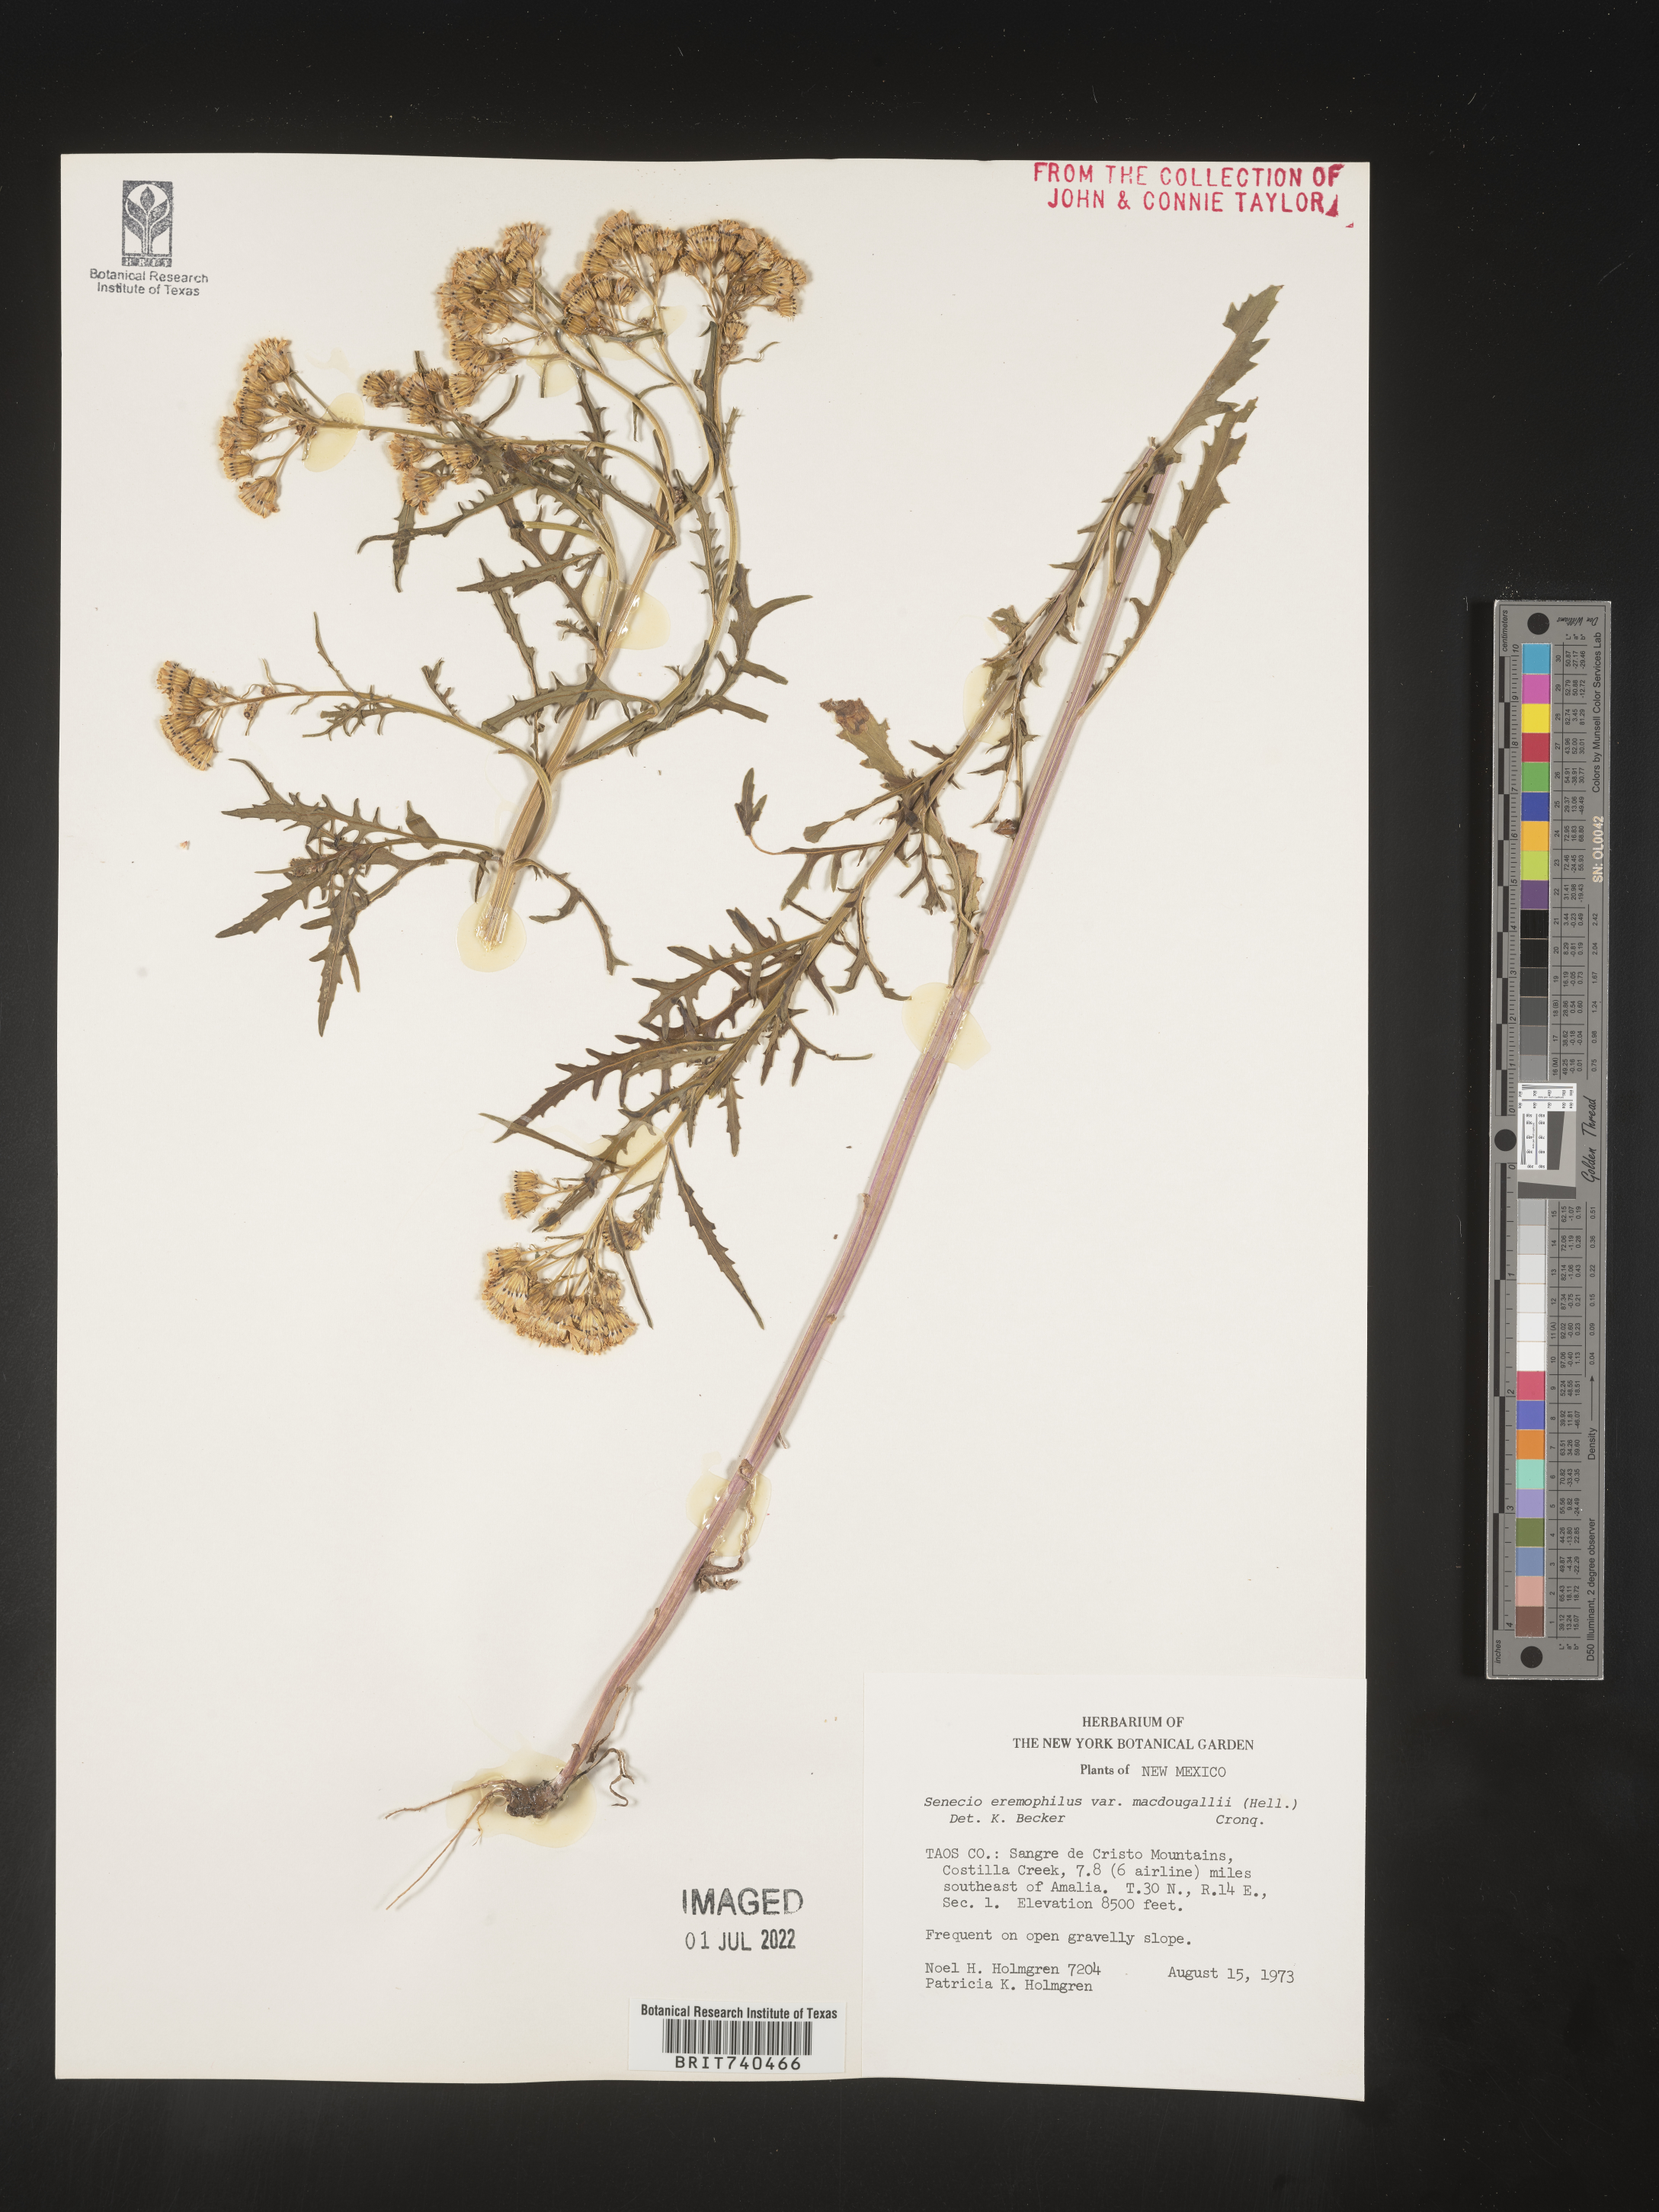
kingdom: Plantae
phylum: Tracheophyta
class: Magnoliopsida
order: Asterales
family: Asteraceae
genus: Senecio
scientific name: Senecio eremophilus
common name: Desert ragwort
